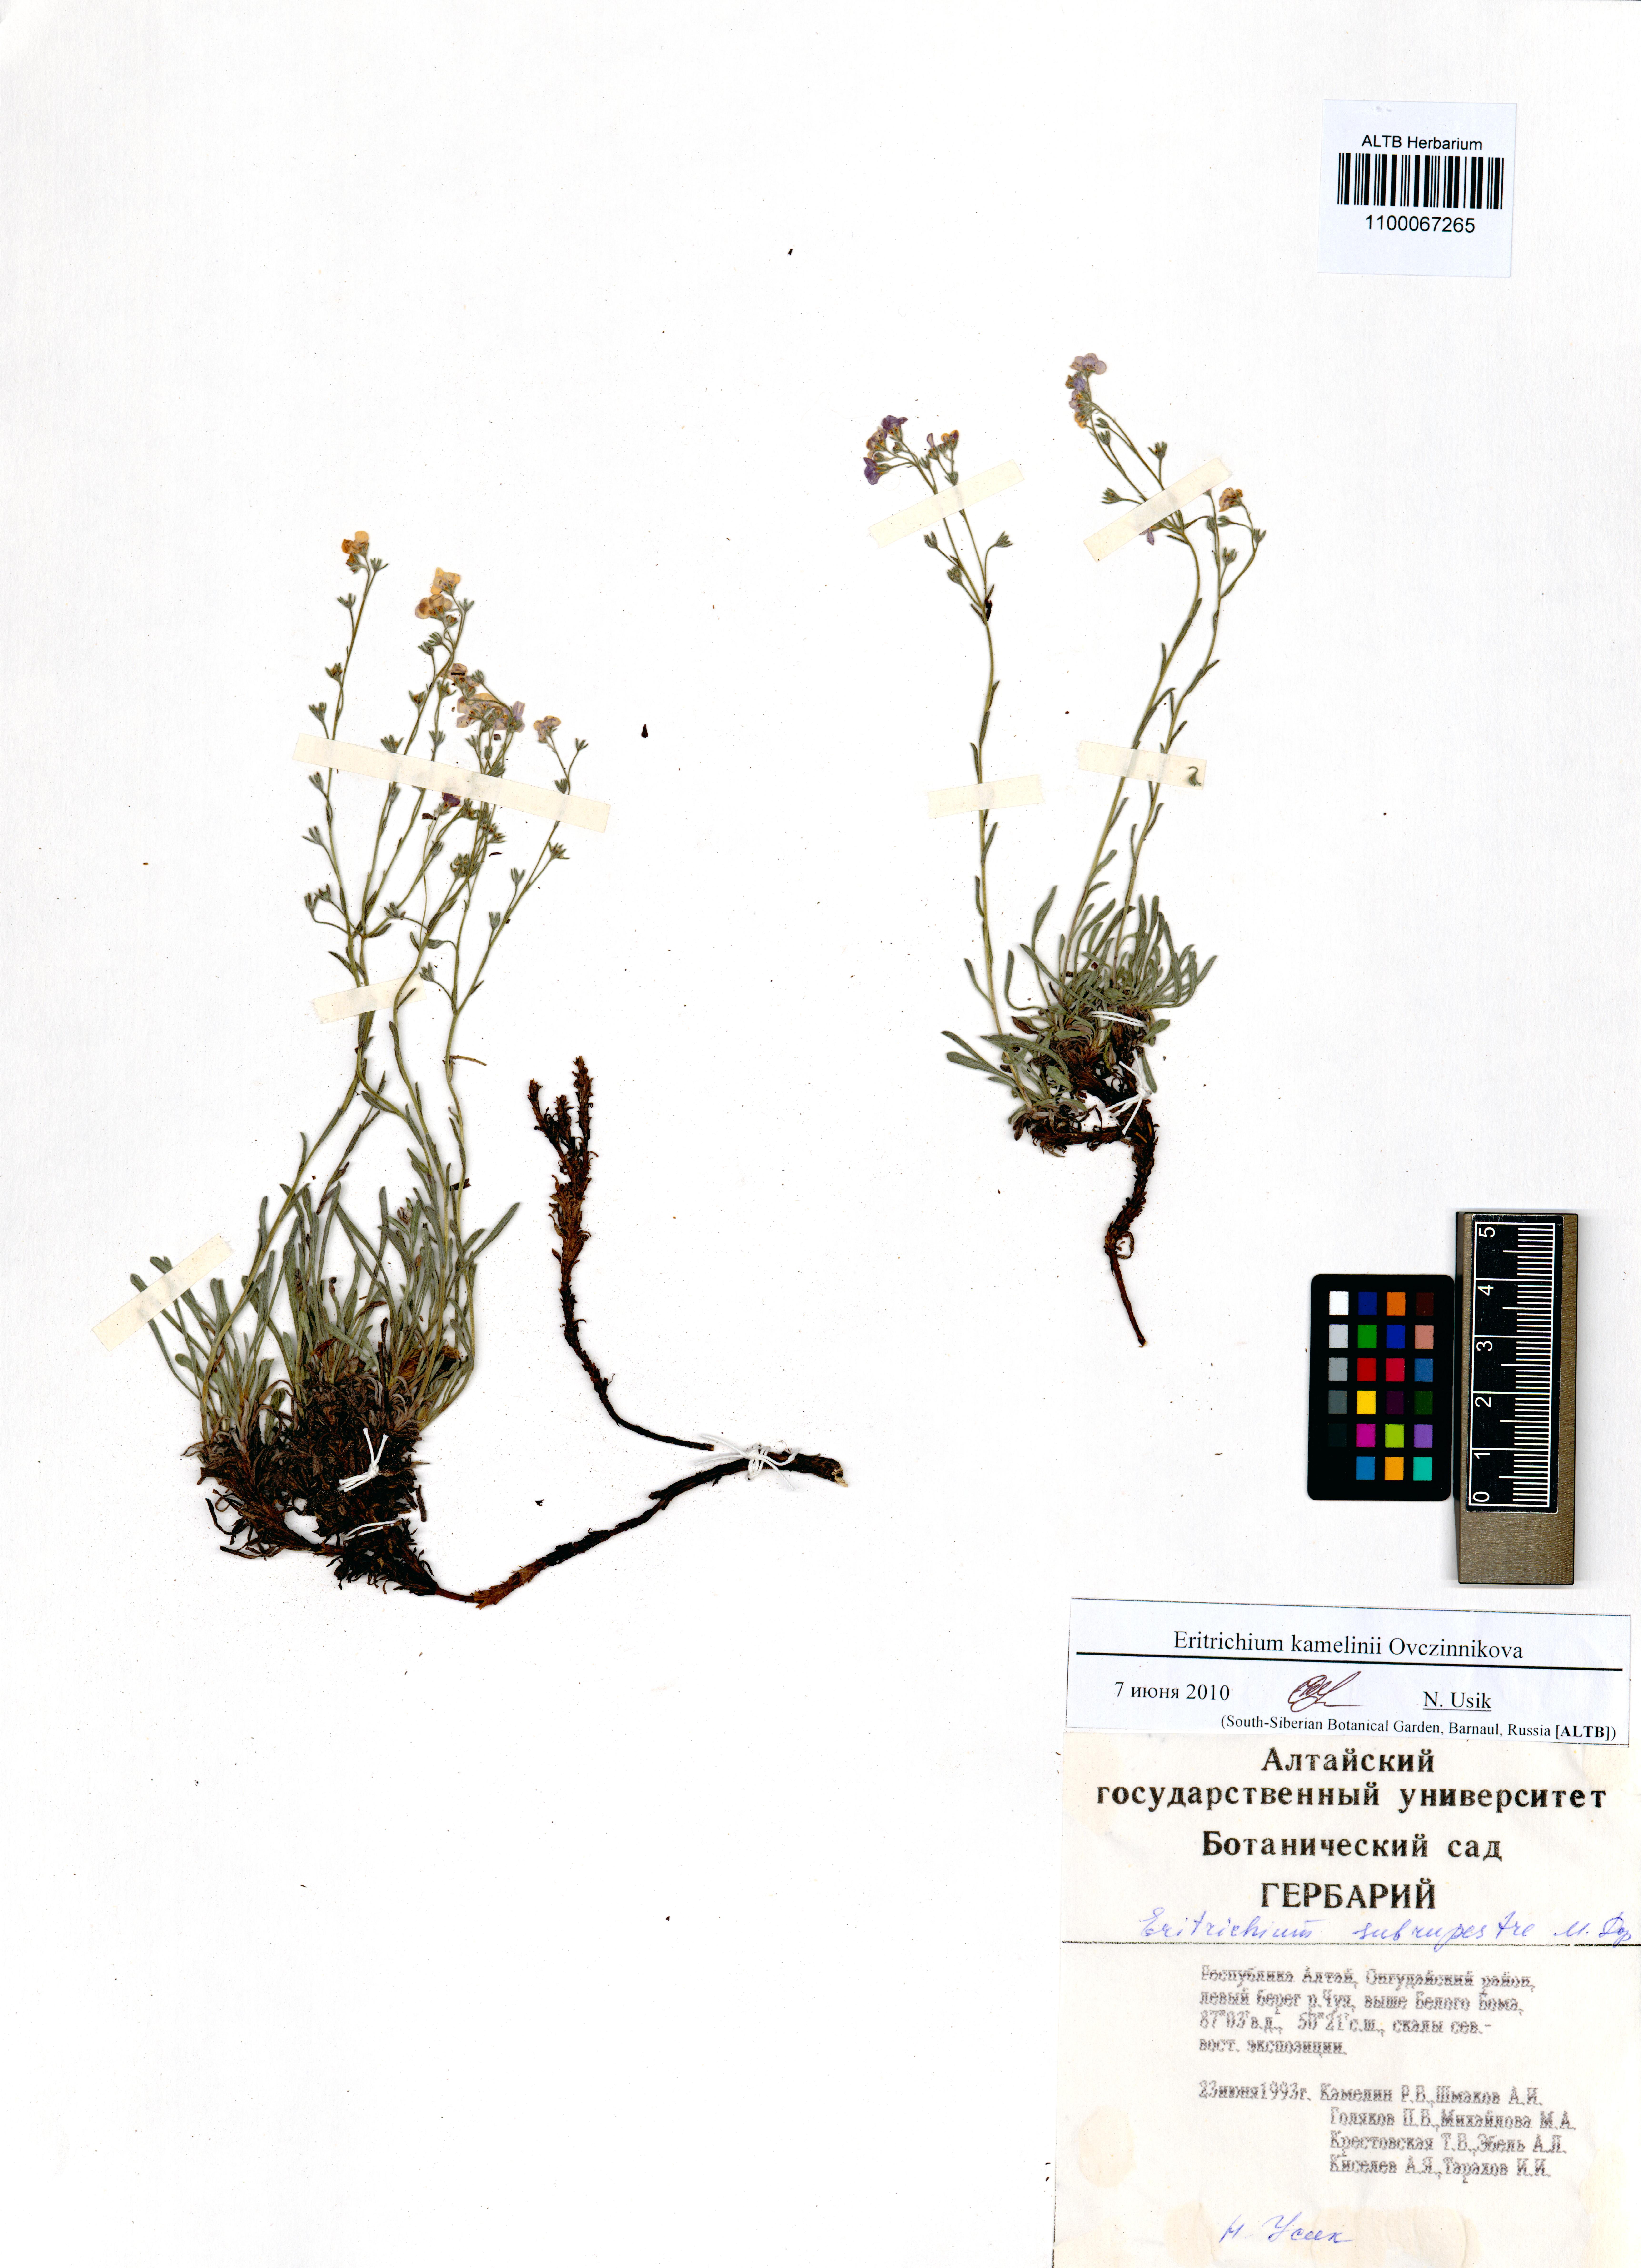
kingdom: Plantae
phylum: Tracheophyta
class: Magnoliopsida
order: Boraginales
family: Boraginaceae
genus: Eritrichium
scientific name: Eritrichium kamelinii
